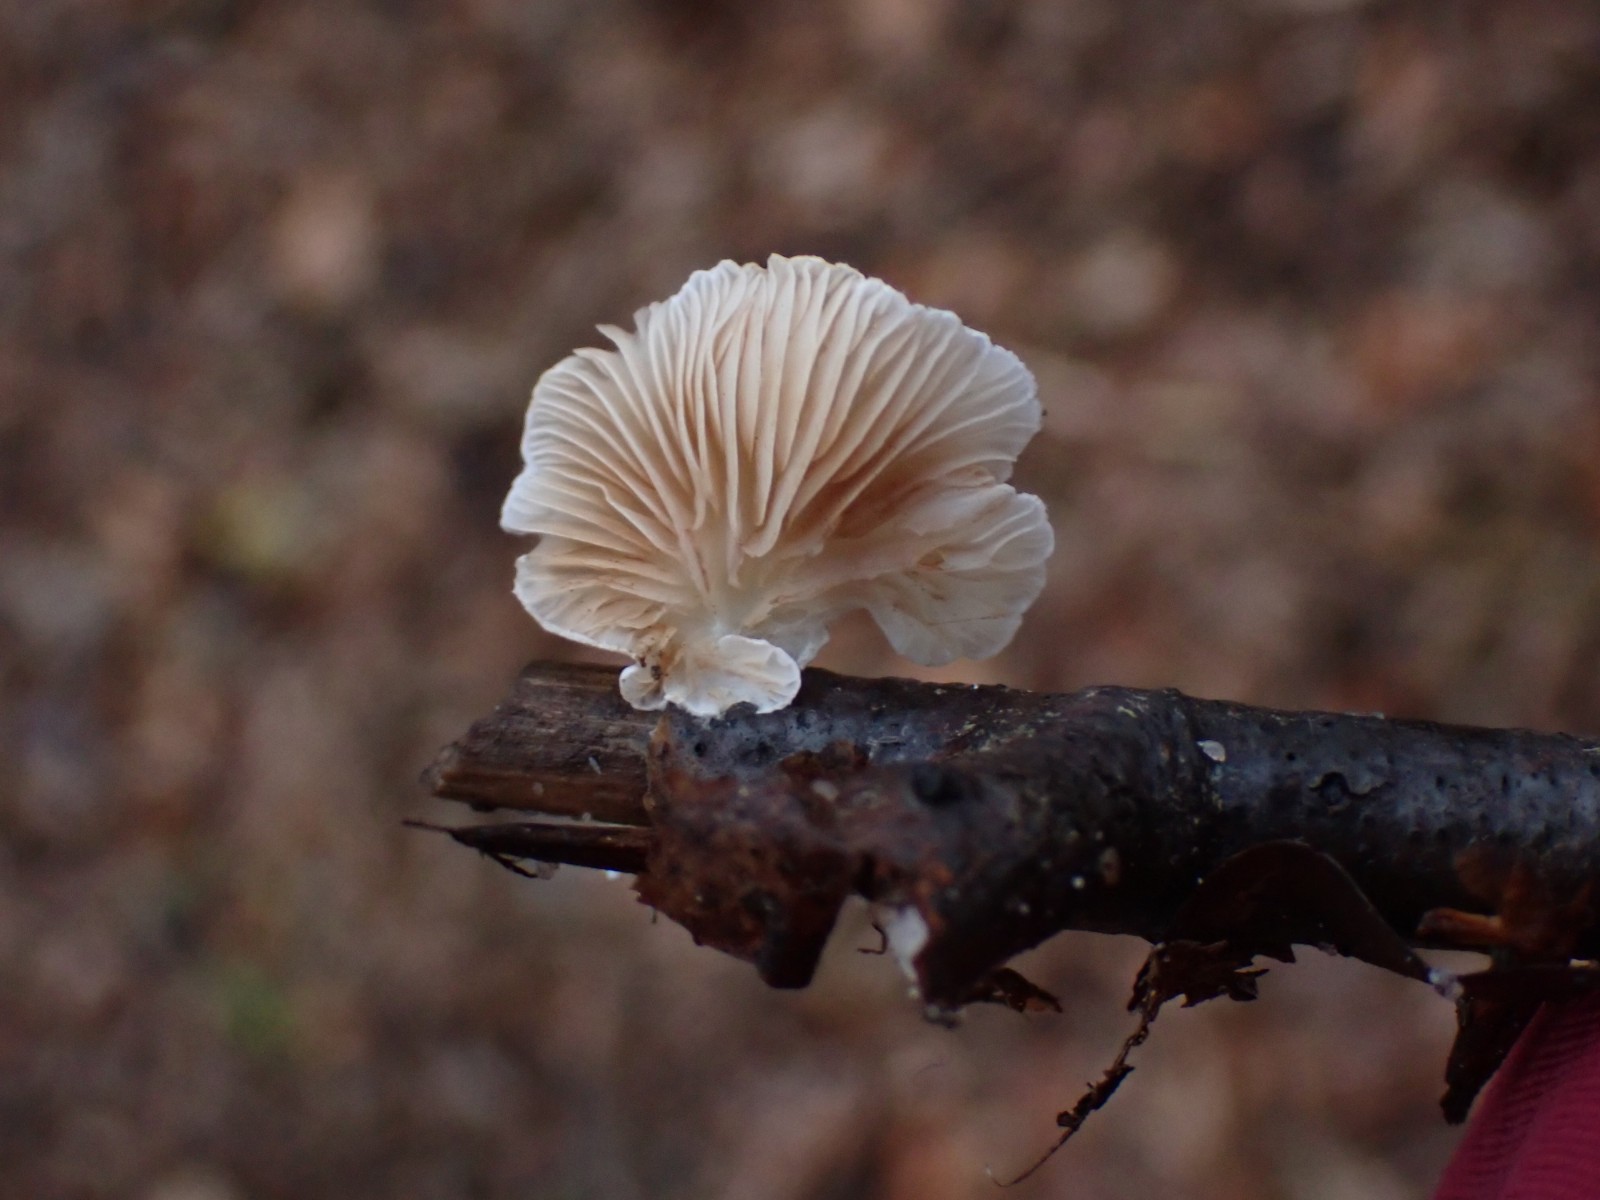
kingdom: Fungi
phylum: Basidiomycota
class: Agaricomycetes
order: Agaricales
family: Crepidotaceae
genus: Crepidotus
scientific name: Crepidotus
